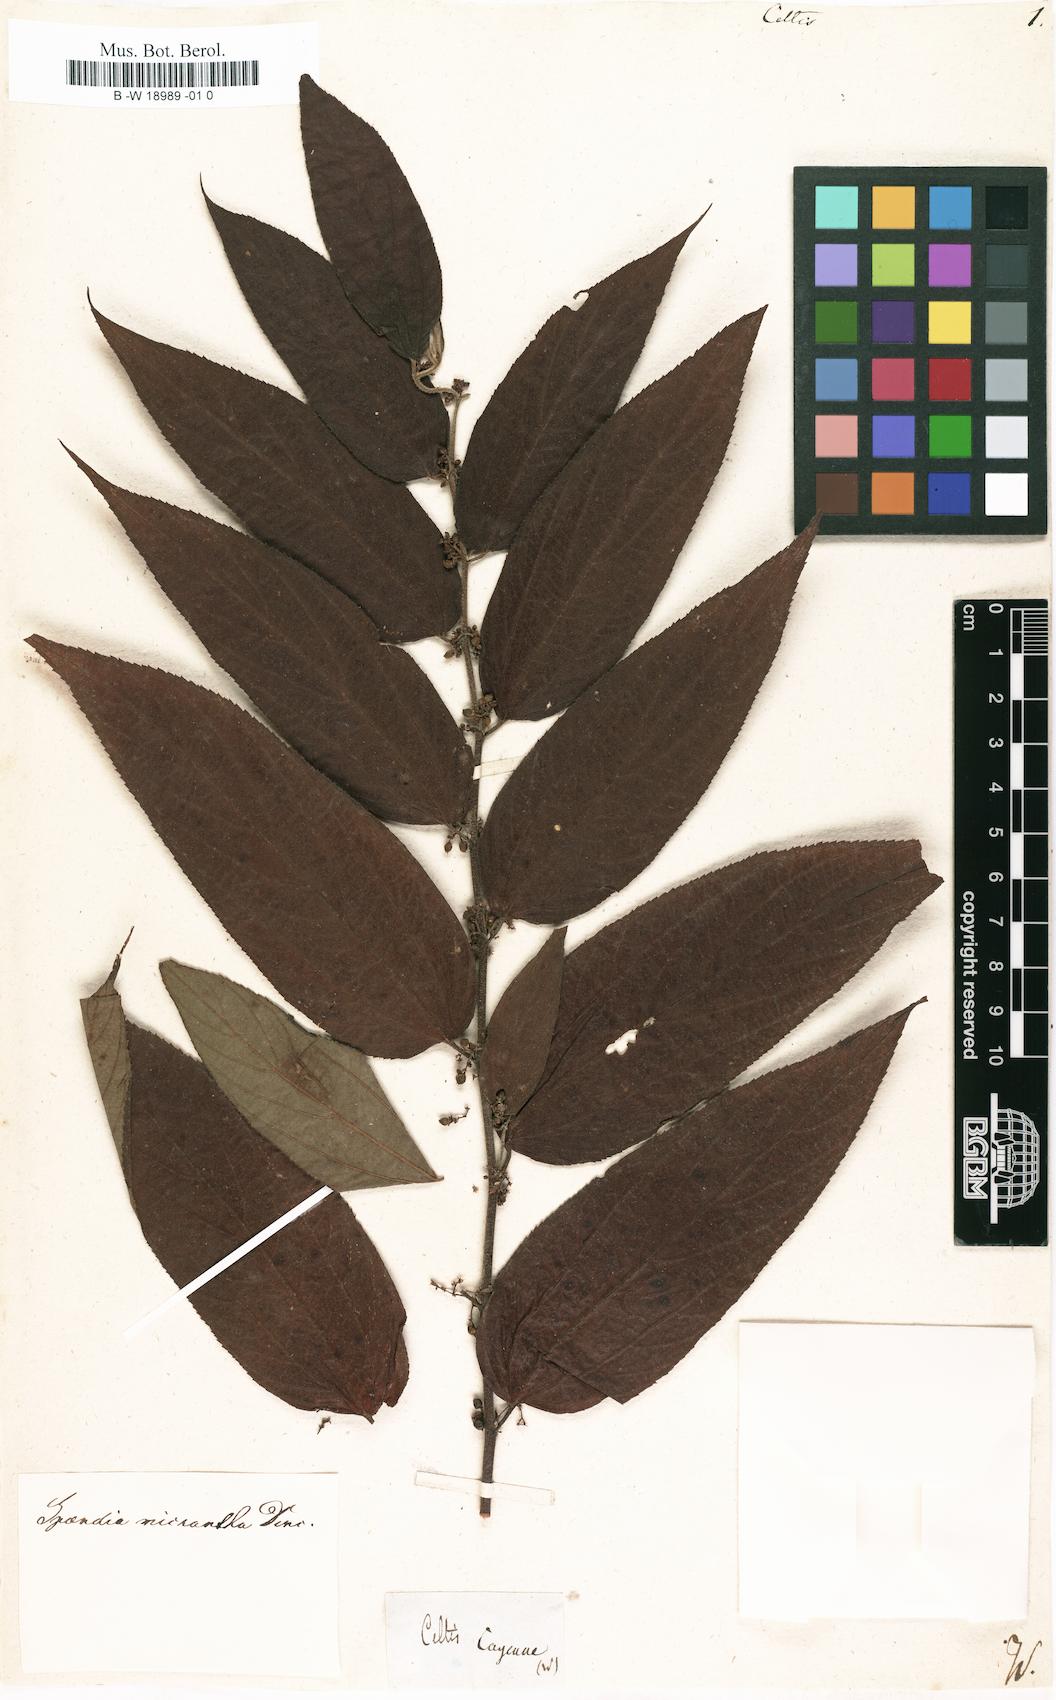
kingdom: Plantae
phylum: Tracheophyta
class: Magnoliopsida
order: Rosales
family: Cannabaceae
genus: Celtis
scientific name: Celtis
